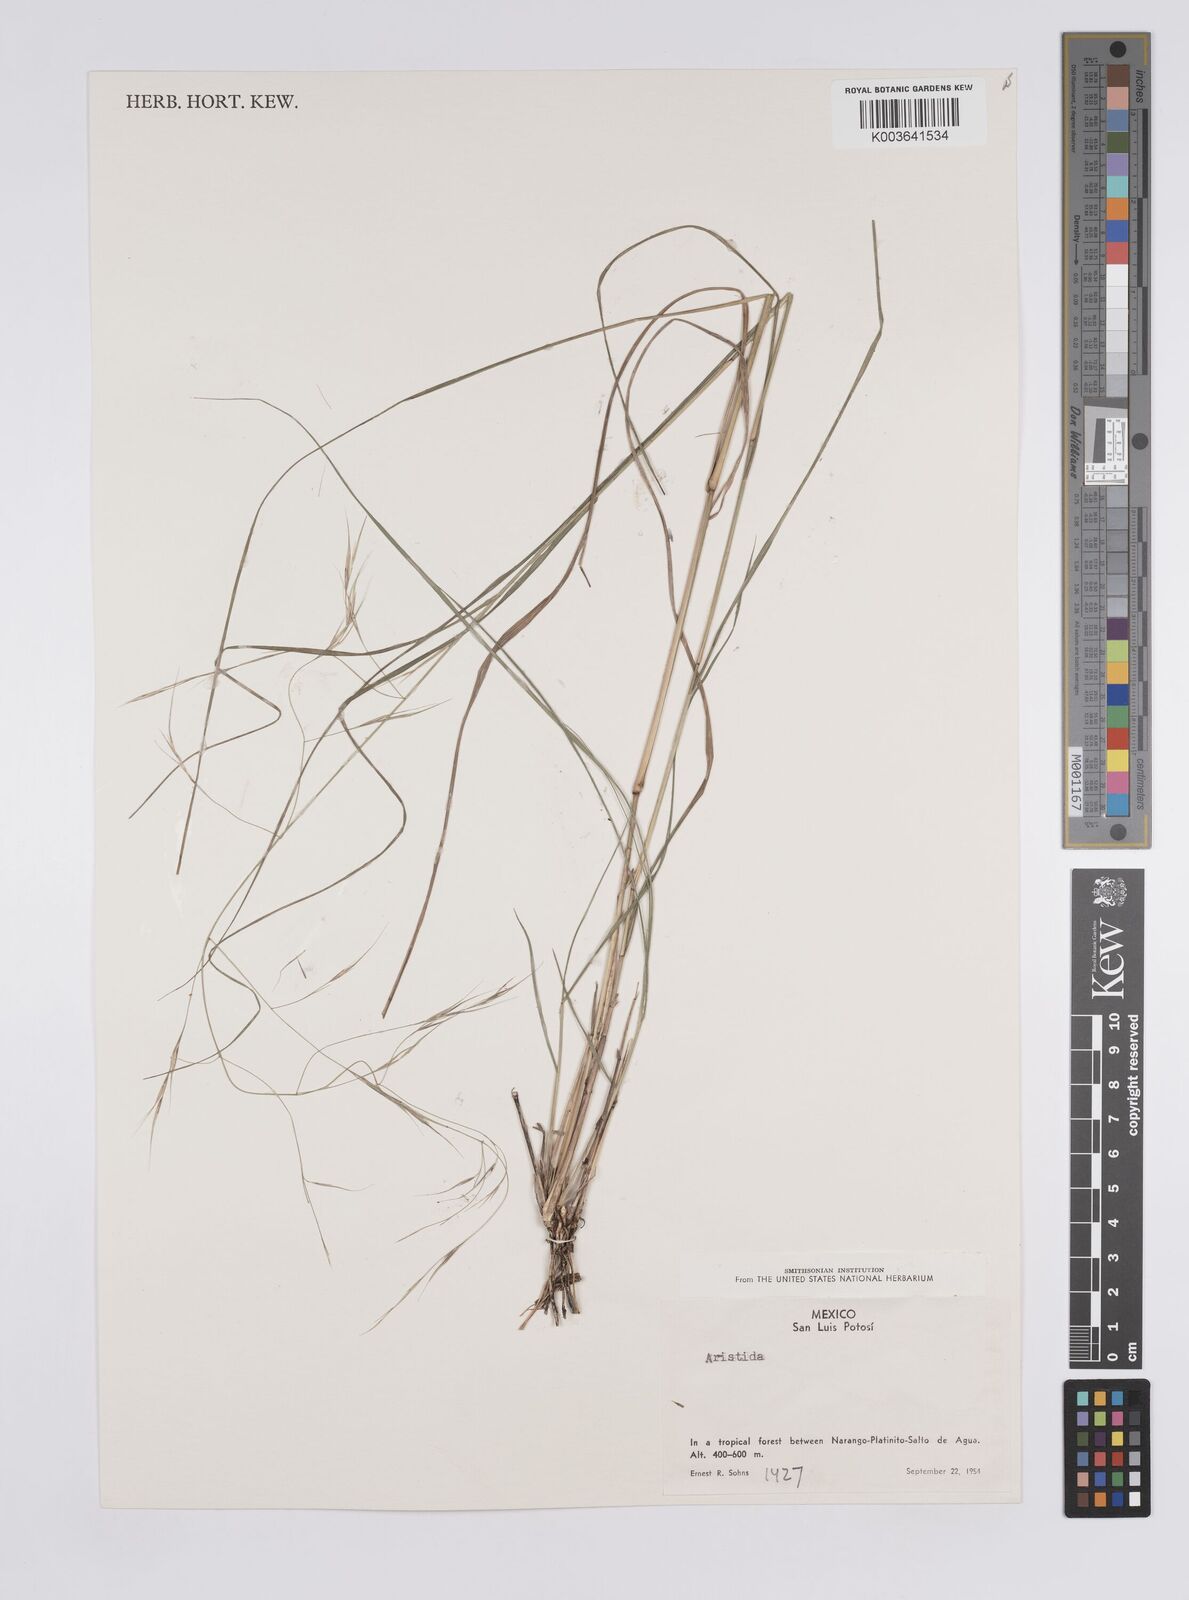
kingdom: Plantae
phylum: Tracheophyta
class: Liliopsida
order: Poales
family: Poaceae
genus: Aristida
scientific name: Aristida
